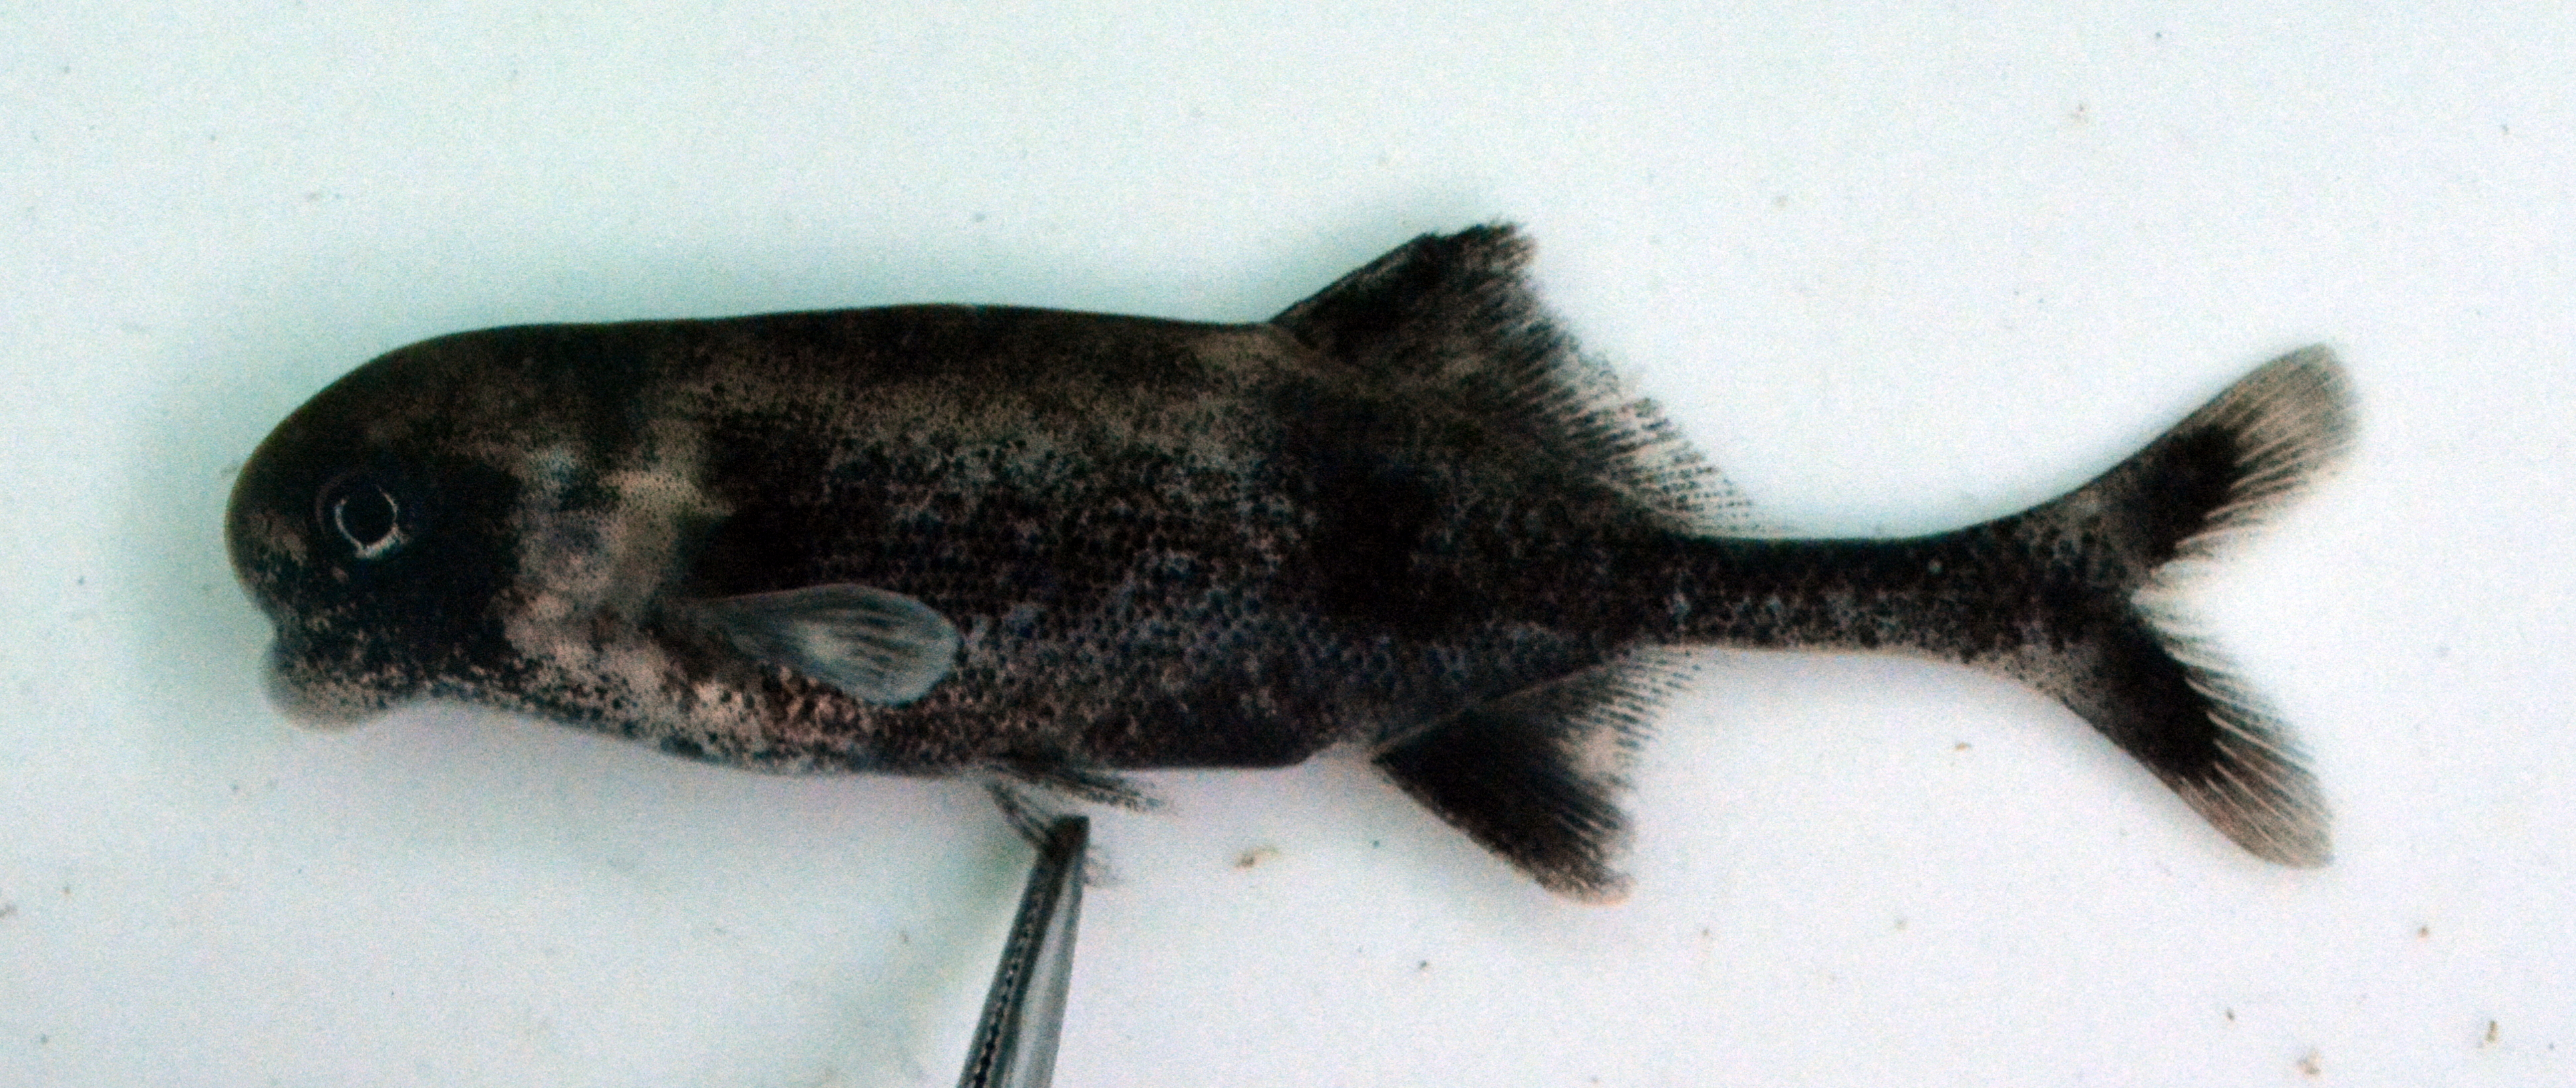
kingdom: Animalia
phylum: Chordata
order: Osteoglossiformes
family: Mormyridae
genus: Cyphomyrus
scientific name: Cyphomyrus discorhynchus
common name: Zambezi parrotfish
